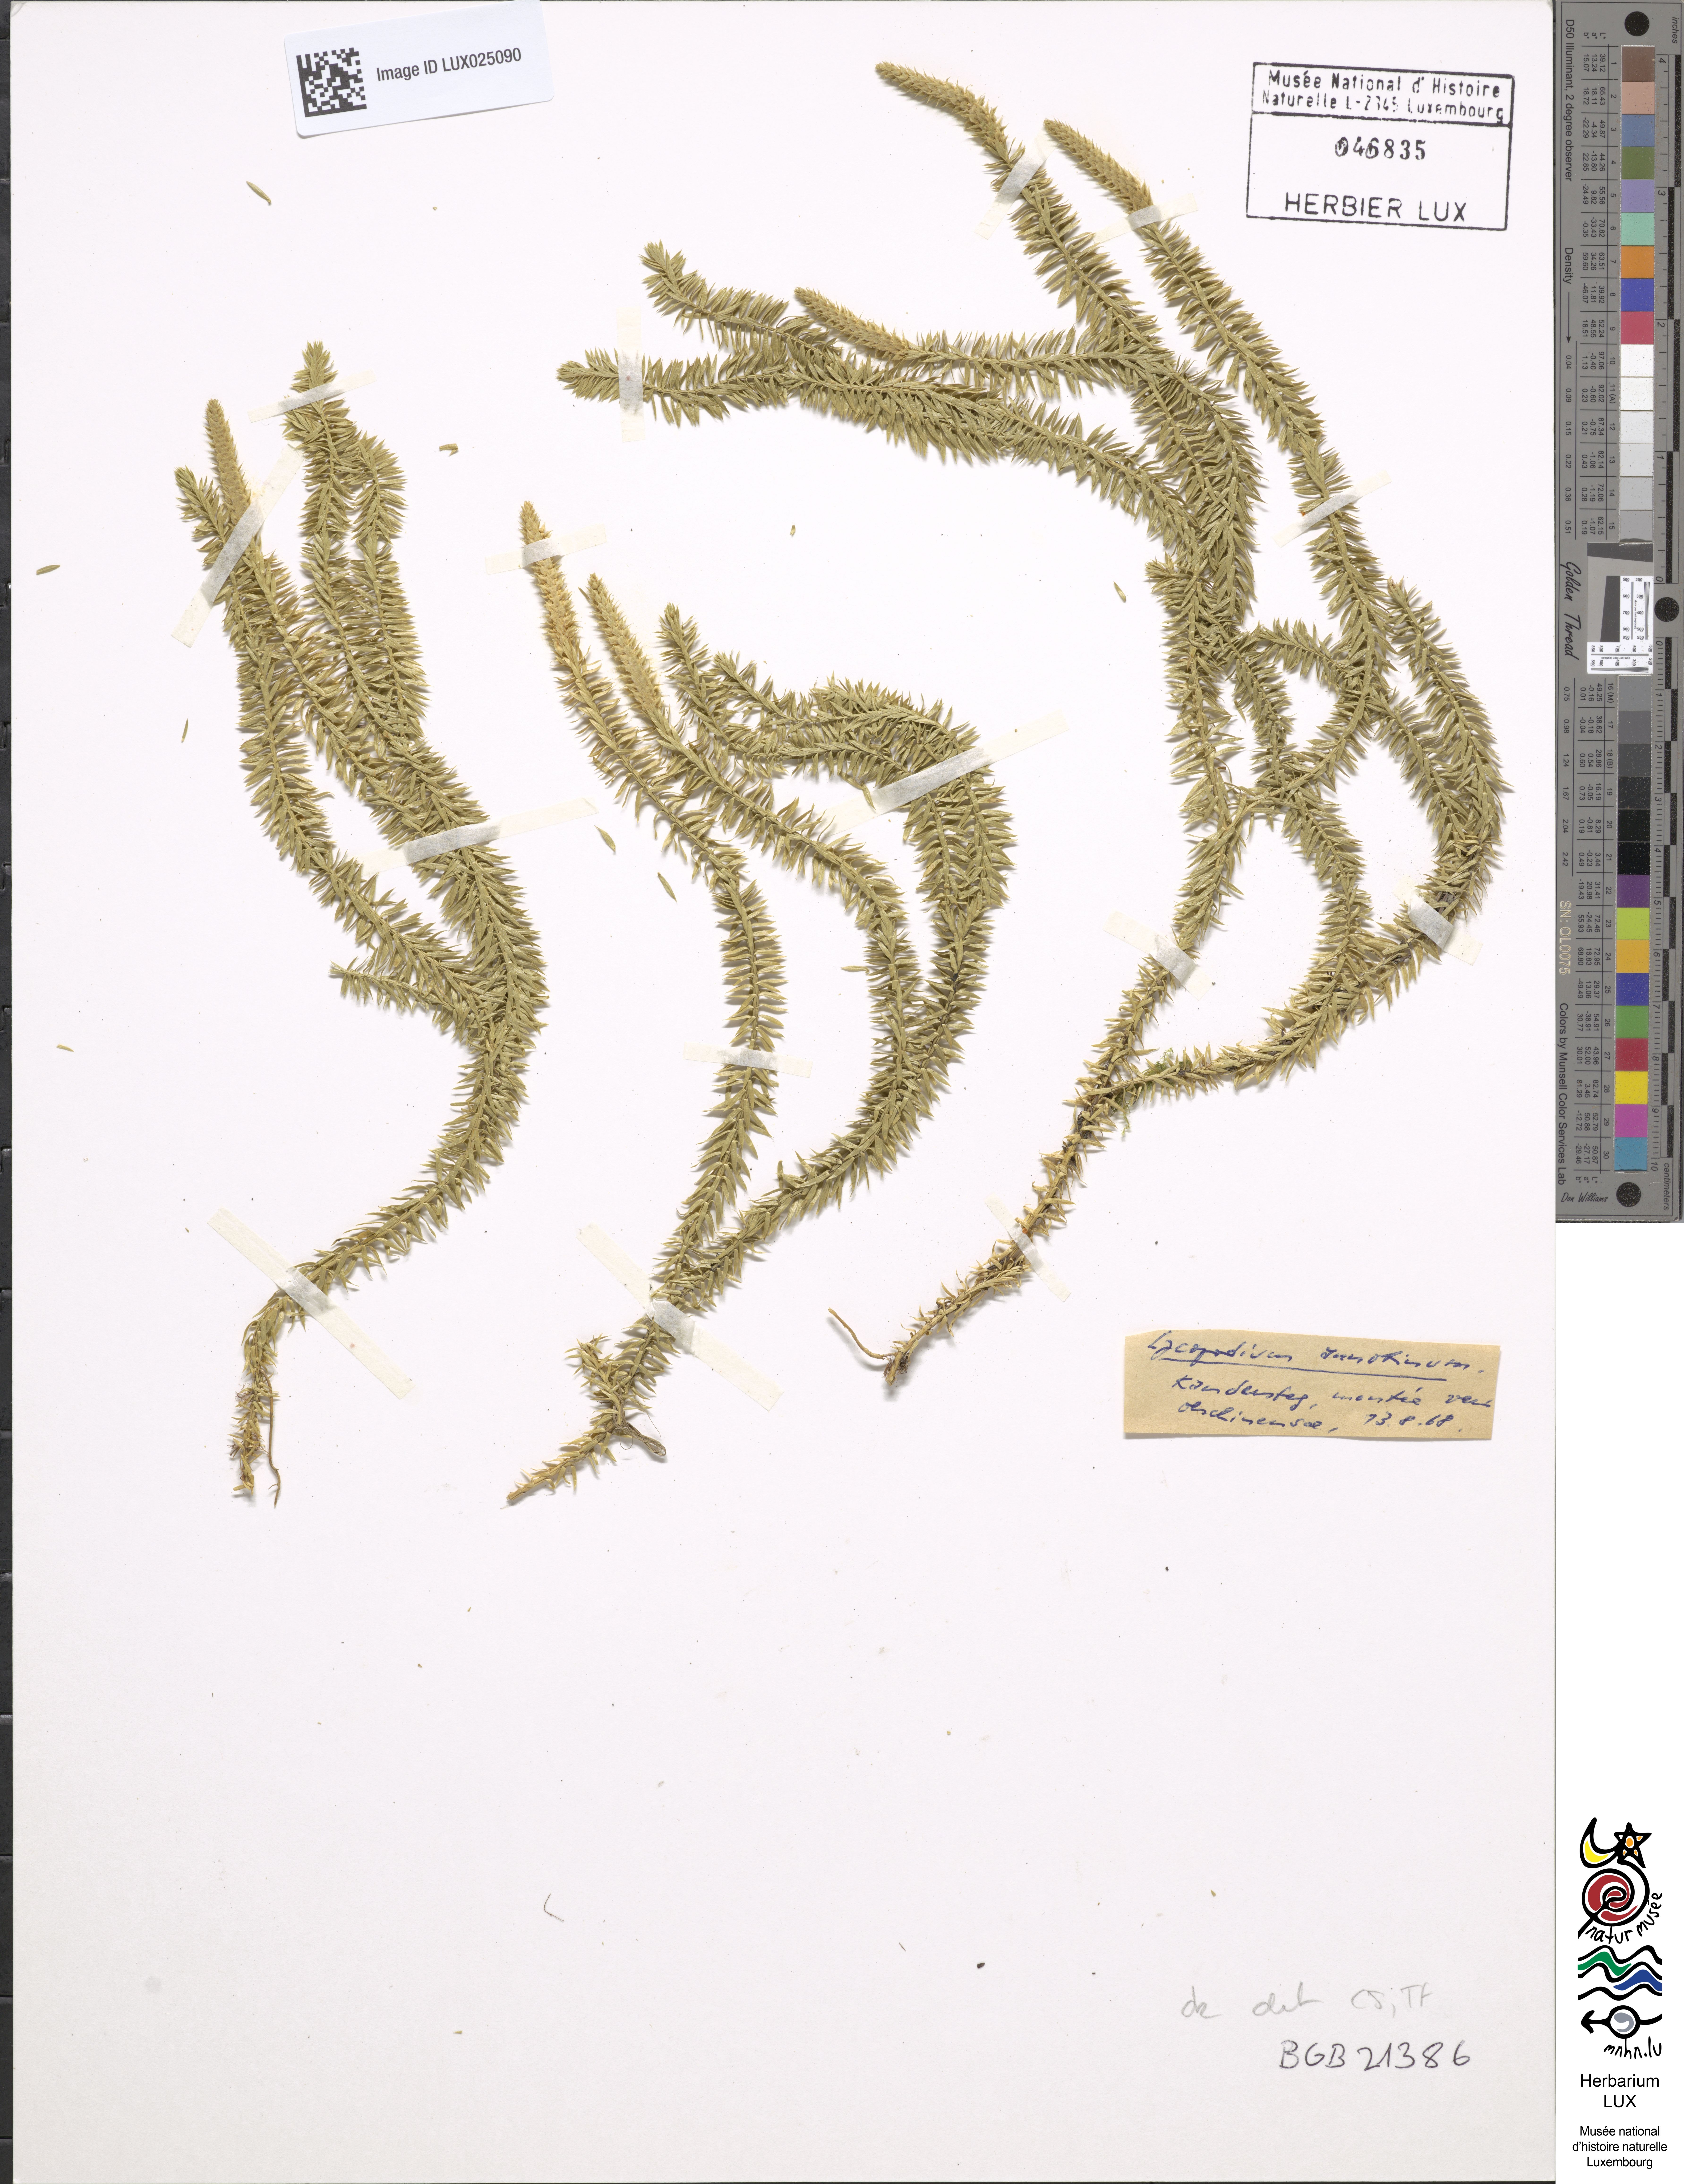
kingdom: Plantae
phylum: Tracheophyta
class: Lycopodiopsida
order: Lycopodiales
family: Lycopodiaceae
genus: Spinulum
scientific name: Spinulum annotinum
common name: Interrupted club-moss
